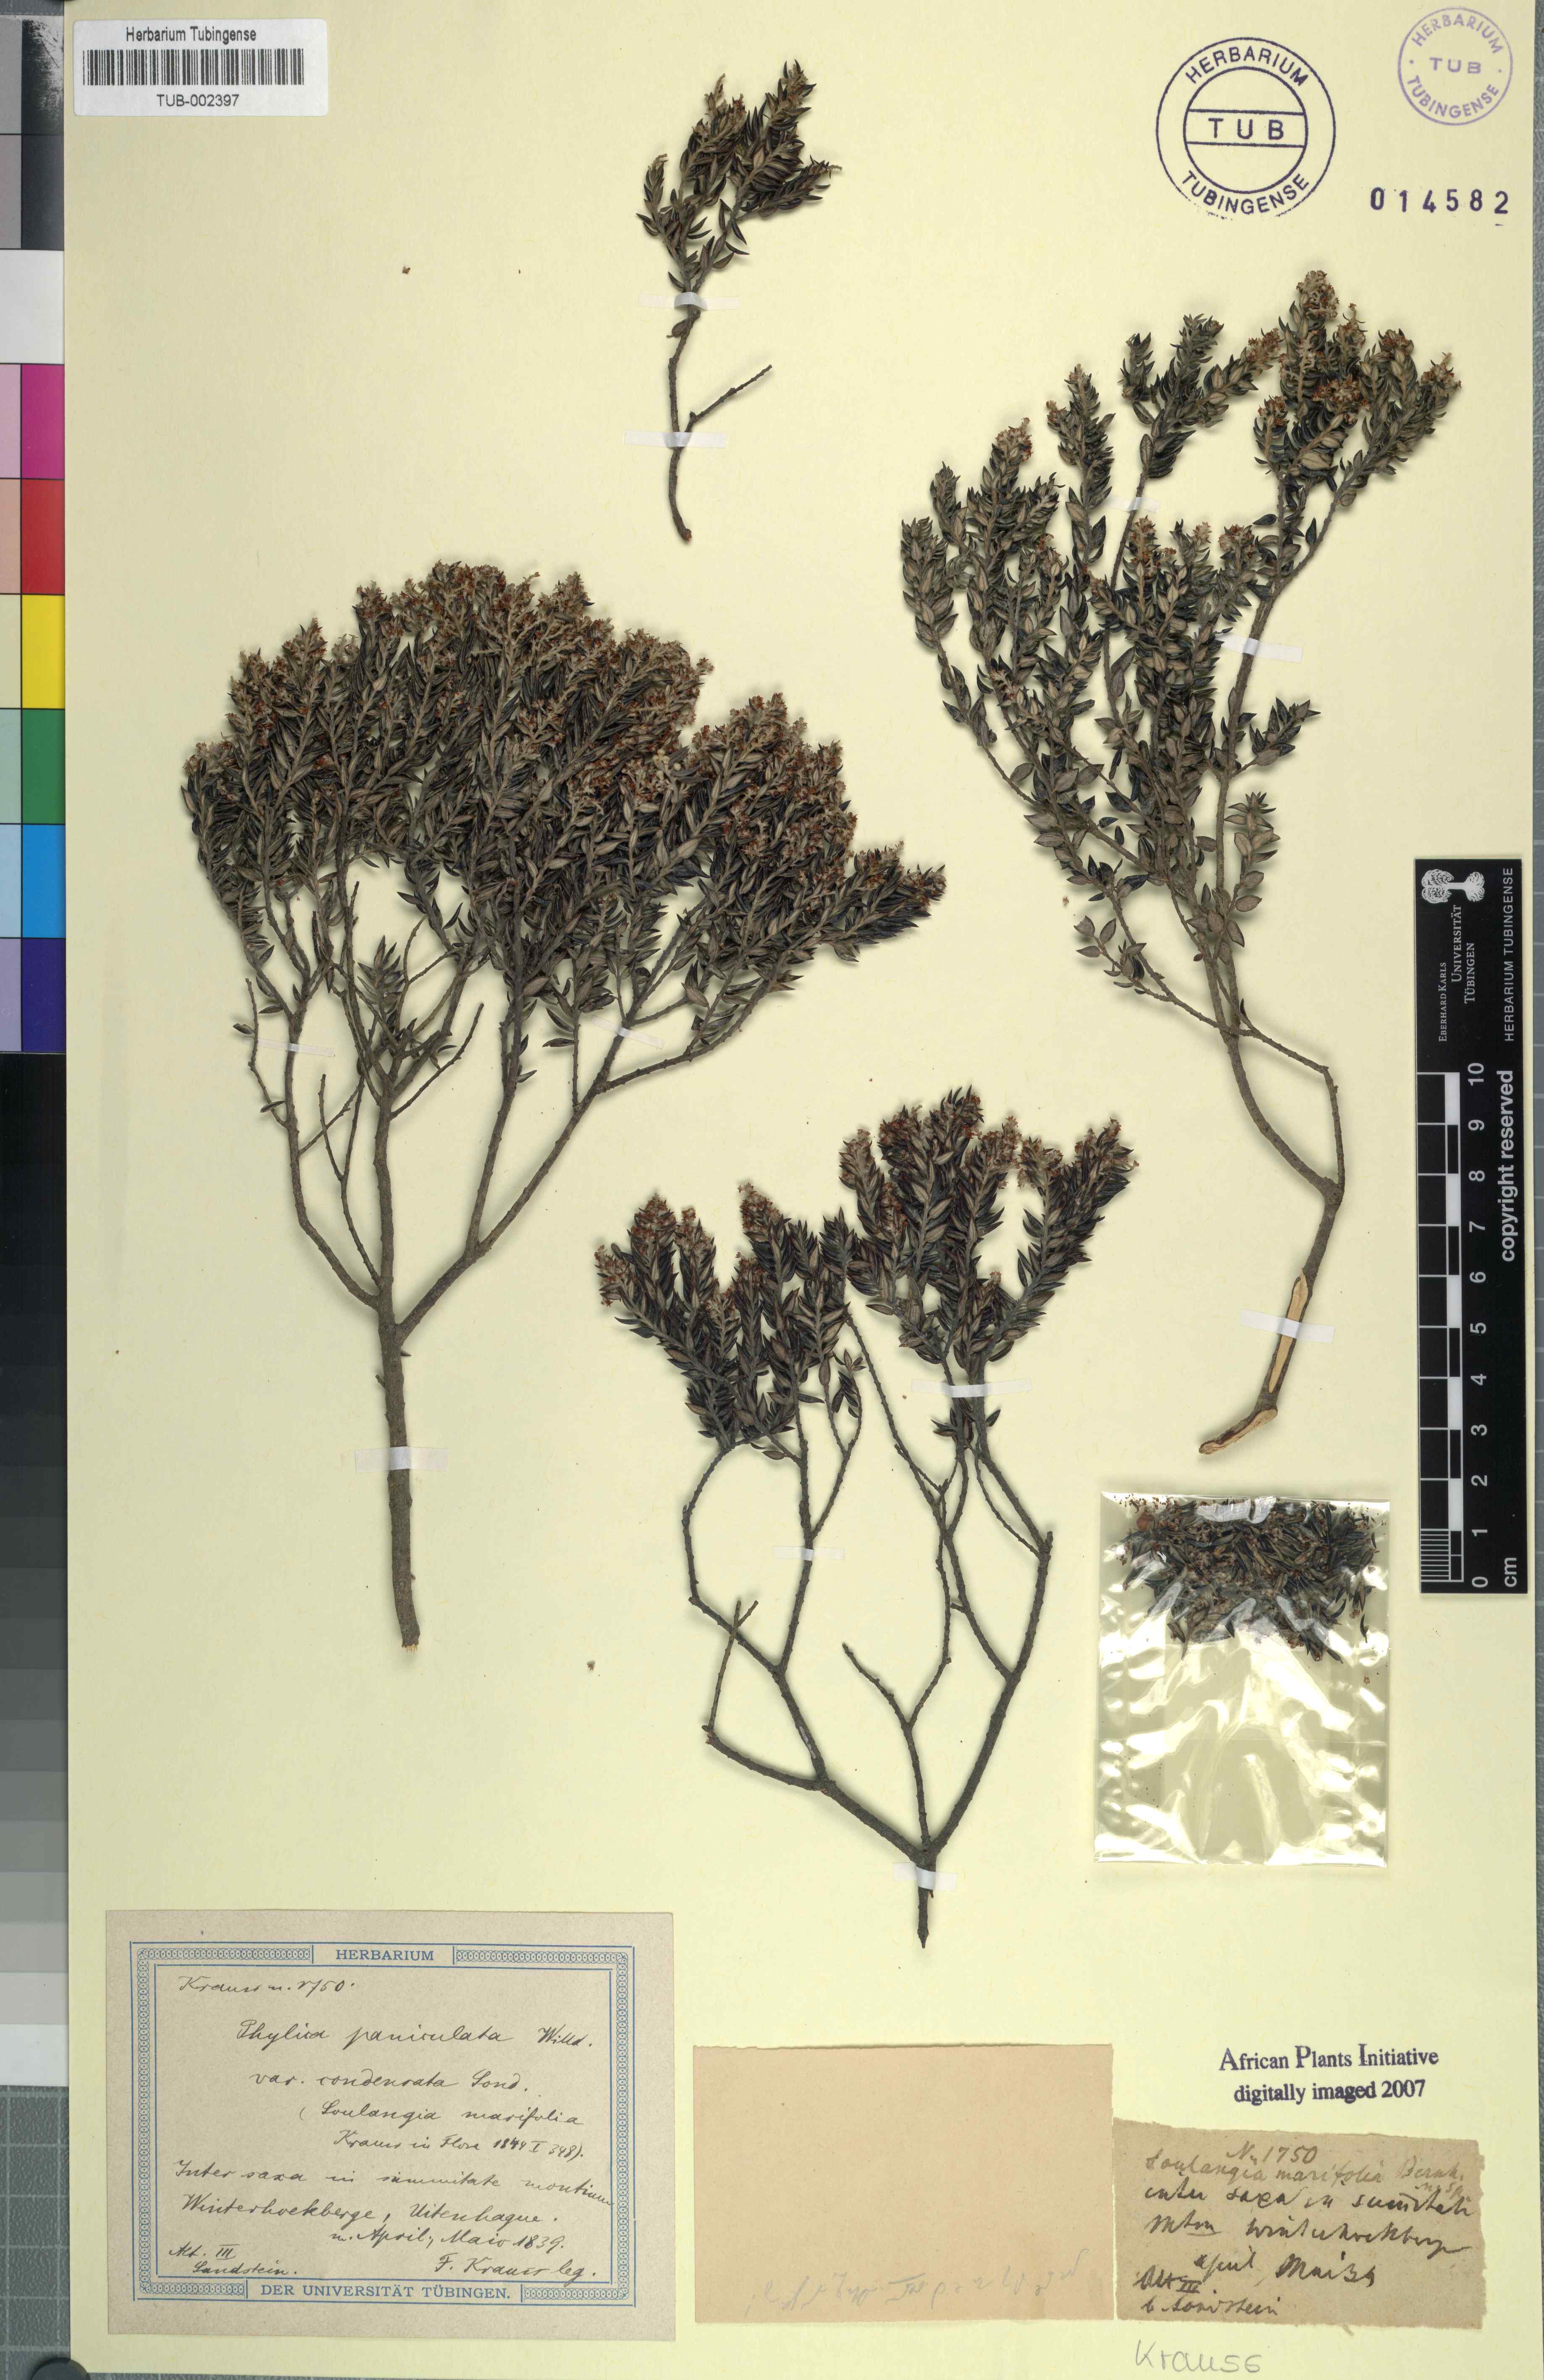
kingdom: Plantae
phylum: Tracheophyta
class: Magnoliopsida
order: Rosales
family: Rhamnaceae
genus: Phylica
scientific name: Phylica paniculata
